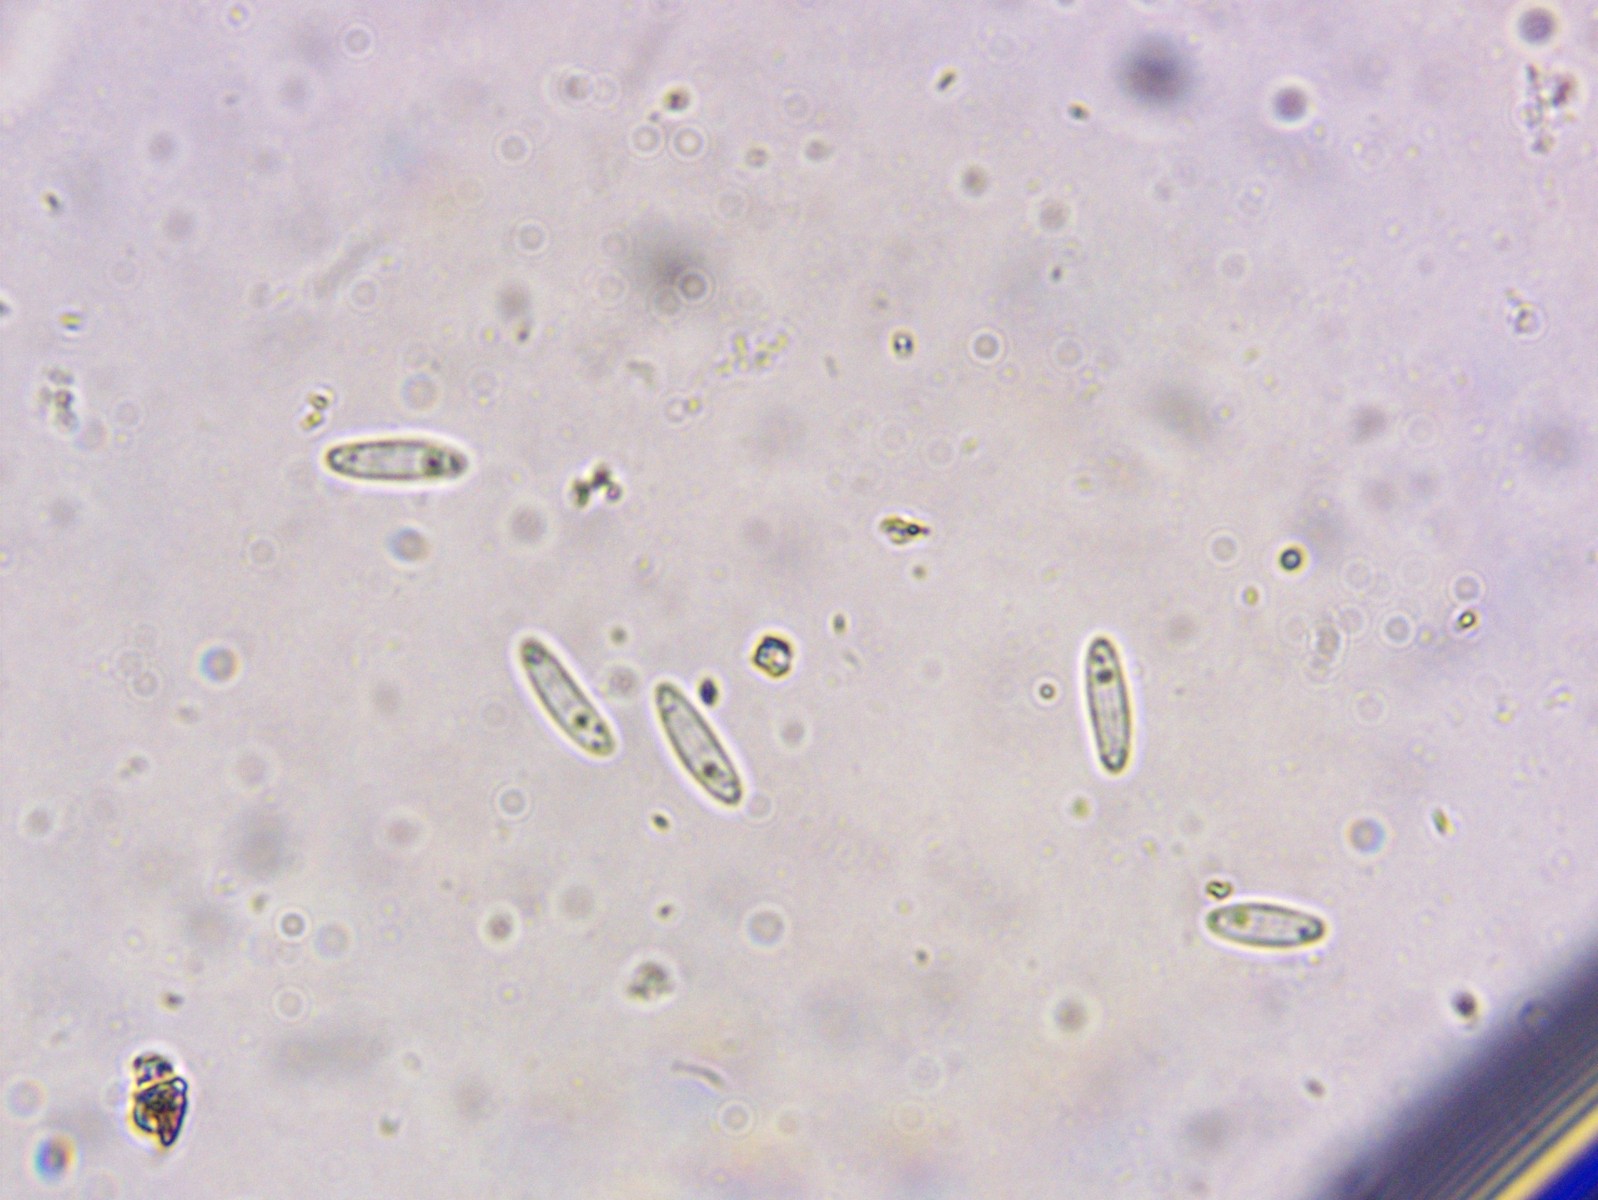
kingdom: Fungi
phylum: Ascomycota
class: Leotiomycetes
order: Helotiales
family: Helotiaceae
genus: Cyathicula
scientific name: Cyathicula cyathoidea
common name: pokal-stilkskive
